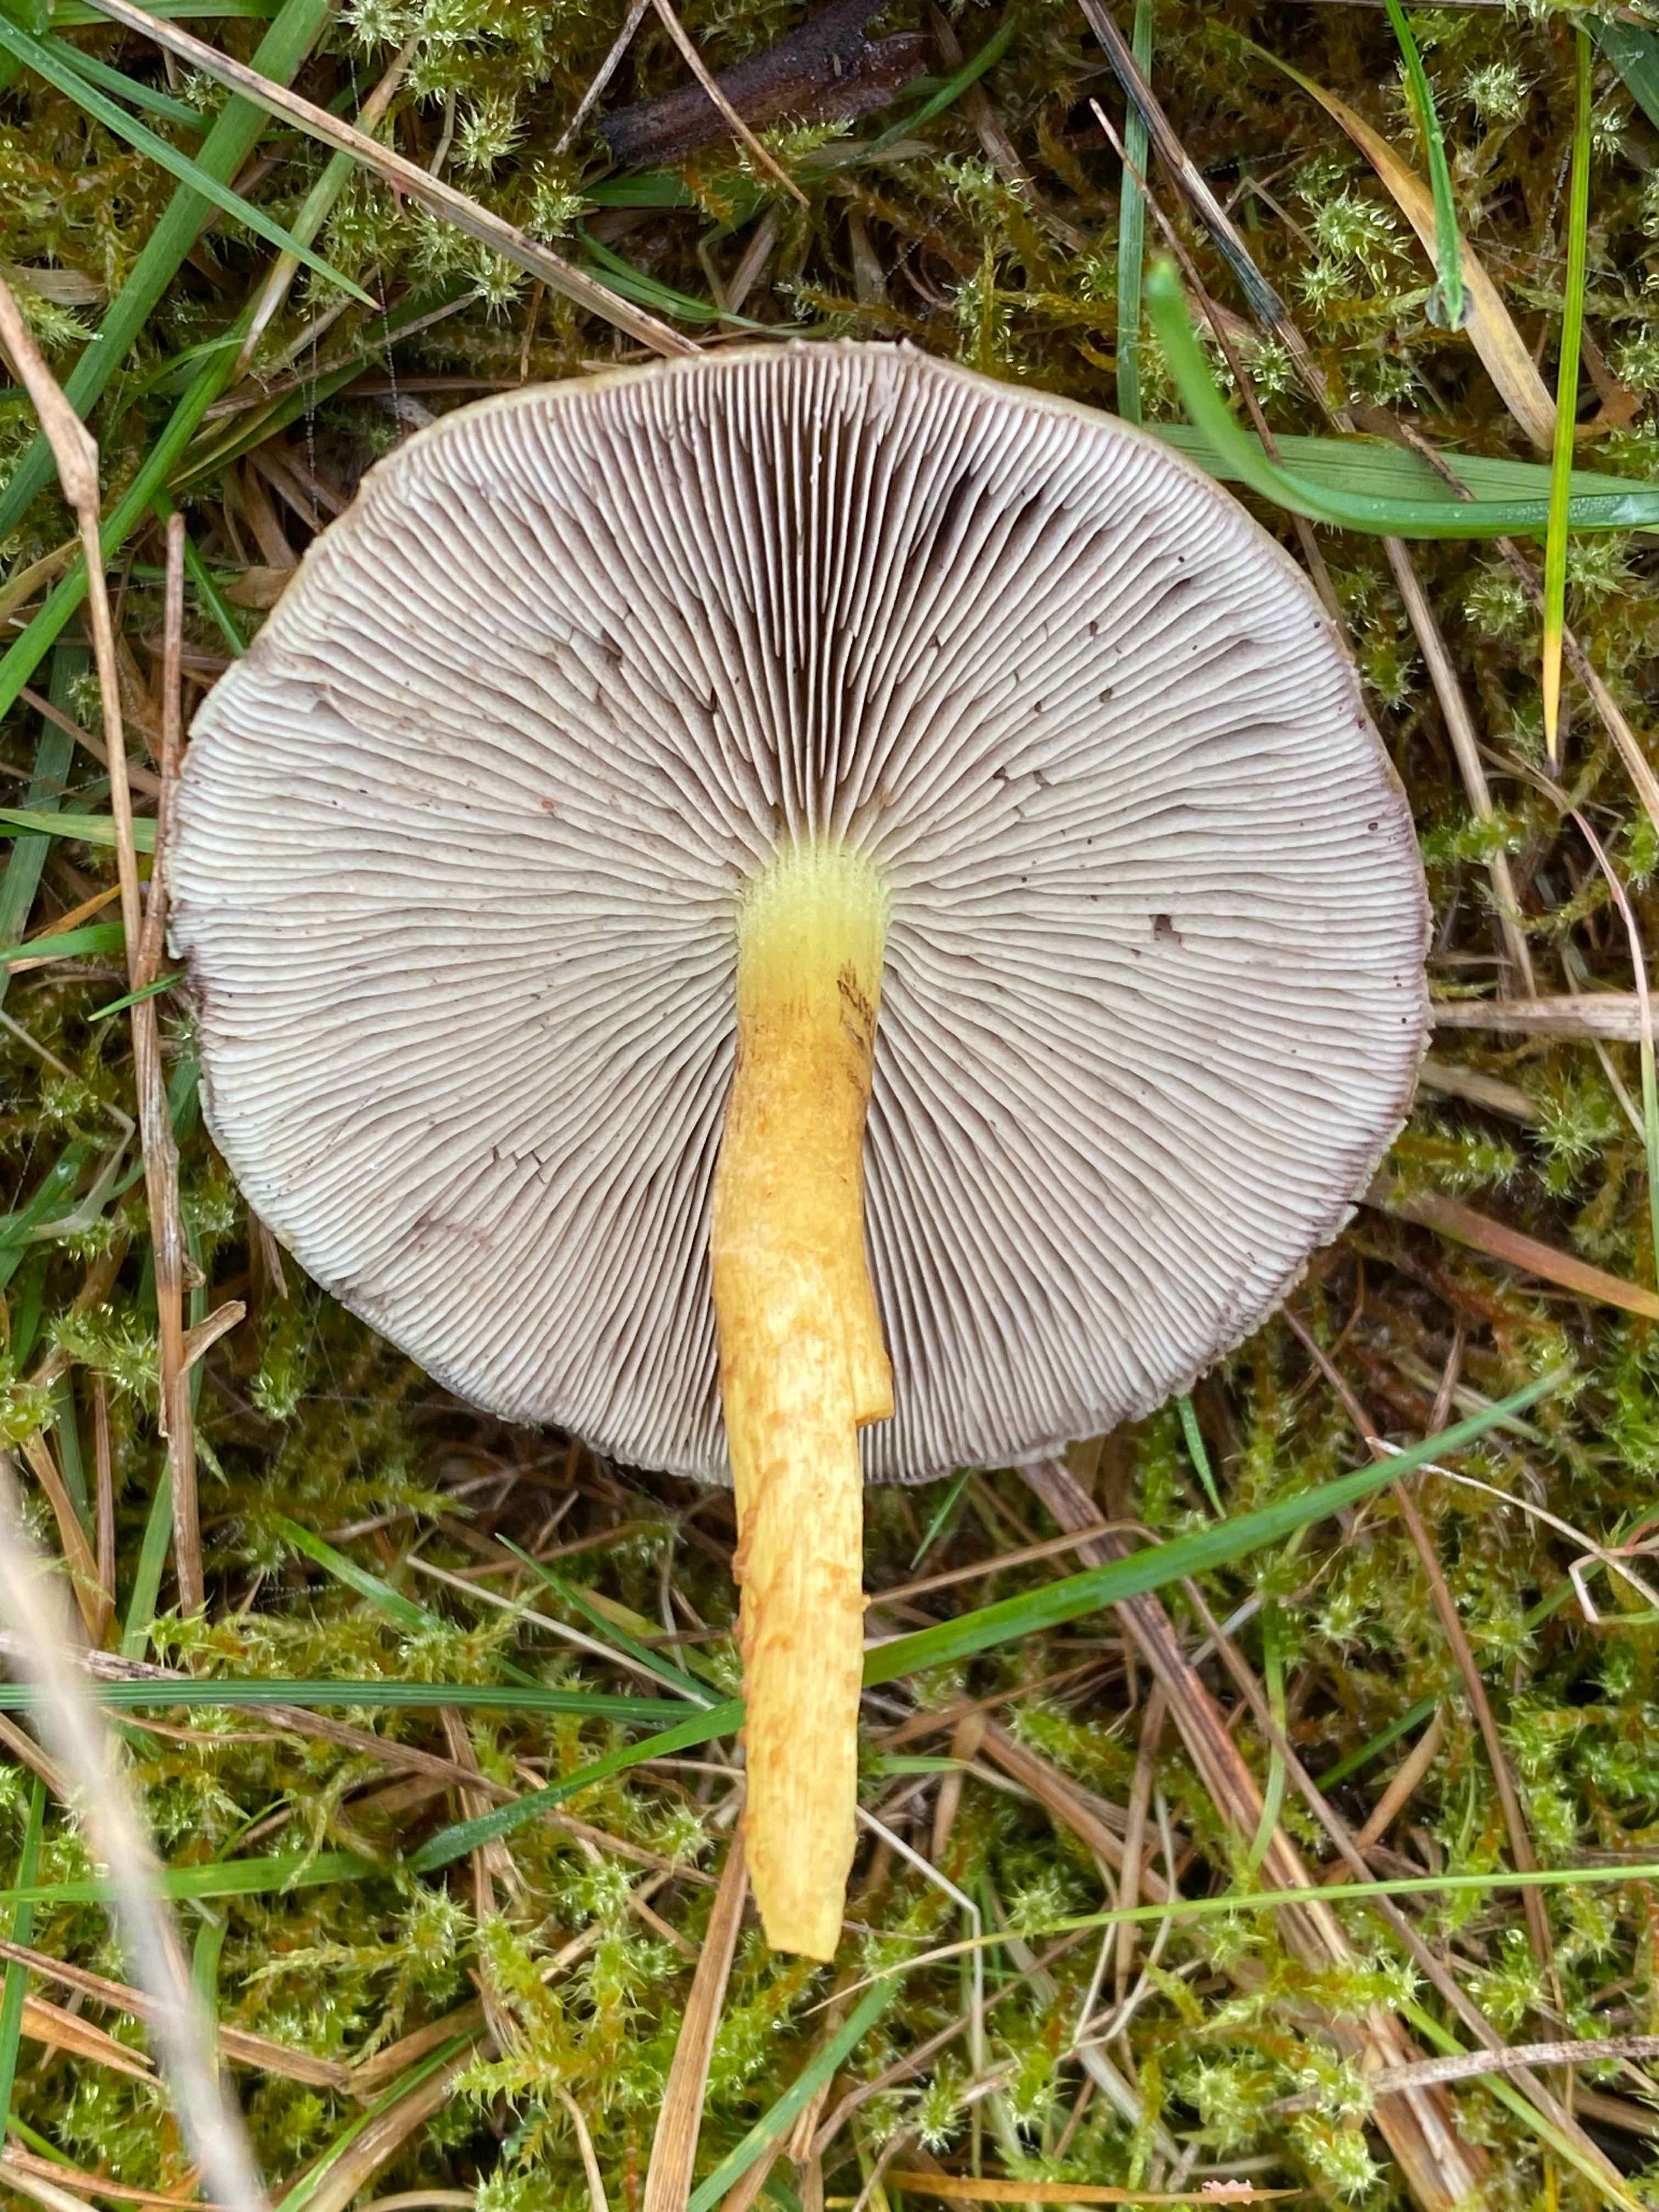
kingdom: Fungi
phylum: Basidiomycota
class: Agaricomycetes
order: Agaricales
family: Strophariaceae
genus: Hypholoma
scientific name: Hypholoma fasciculare
